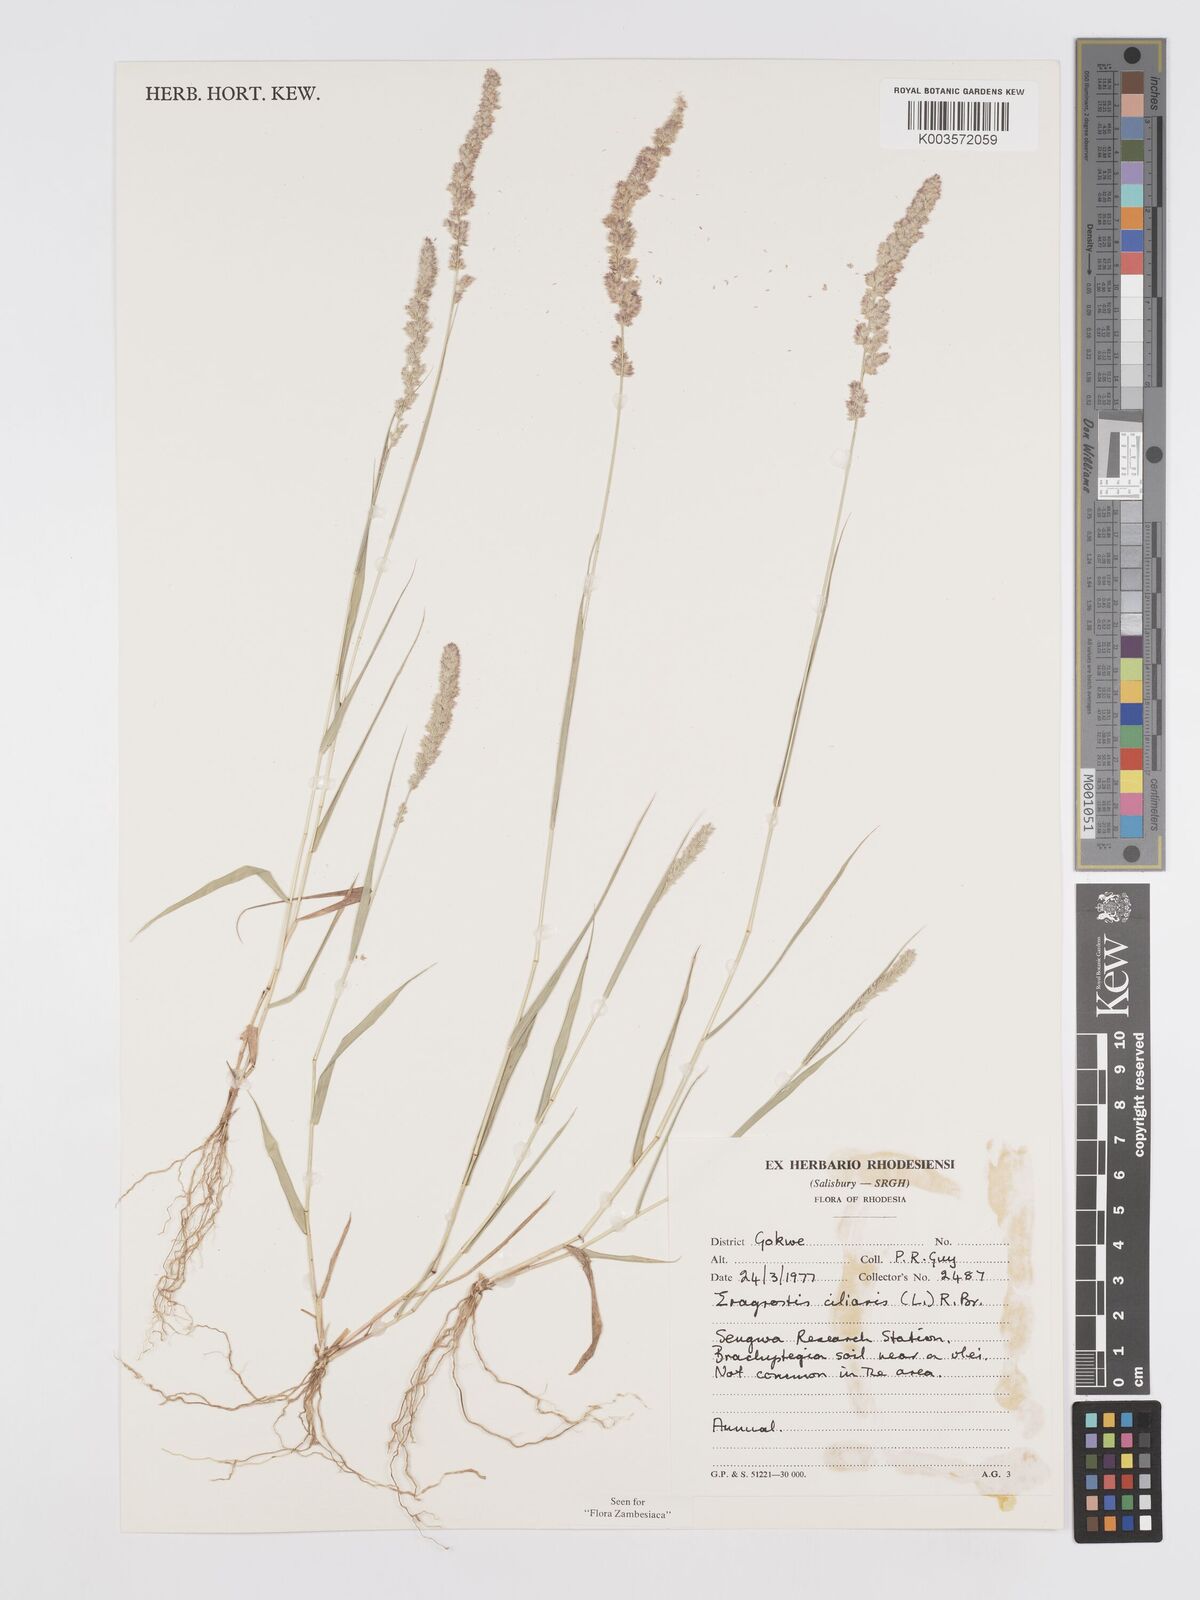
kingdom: Plantae
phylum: Tracheophyta
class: Liliopsida
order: Poales
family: Poaceae
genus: Eragrostis
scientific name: Eragrostis ciliaris
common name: Gophertail lovegrass
